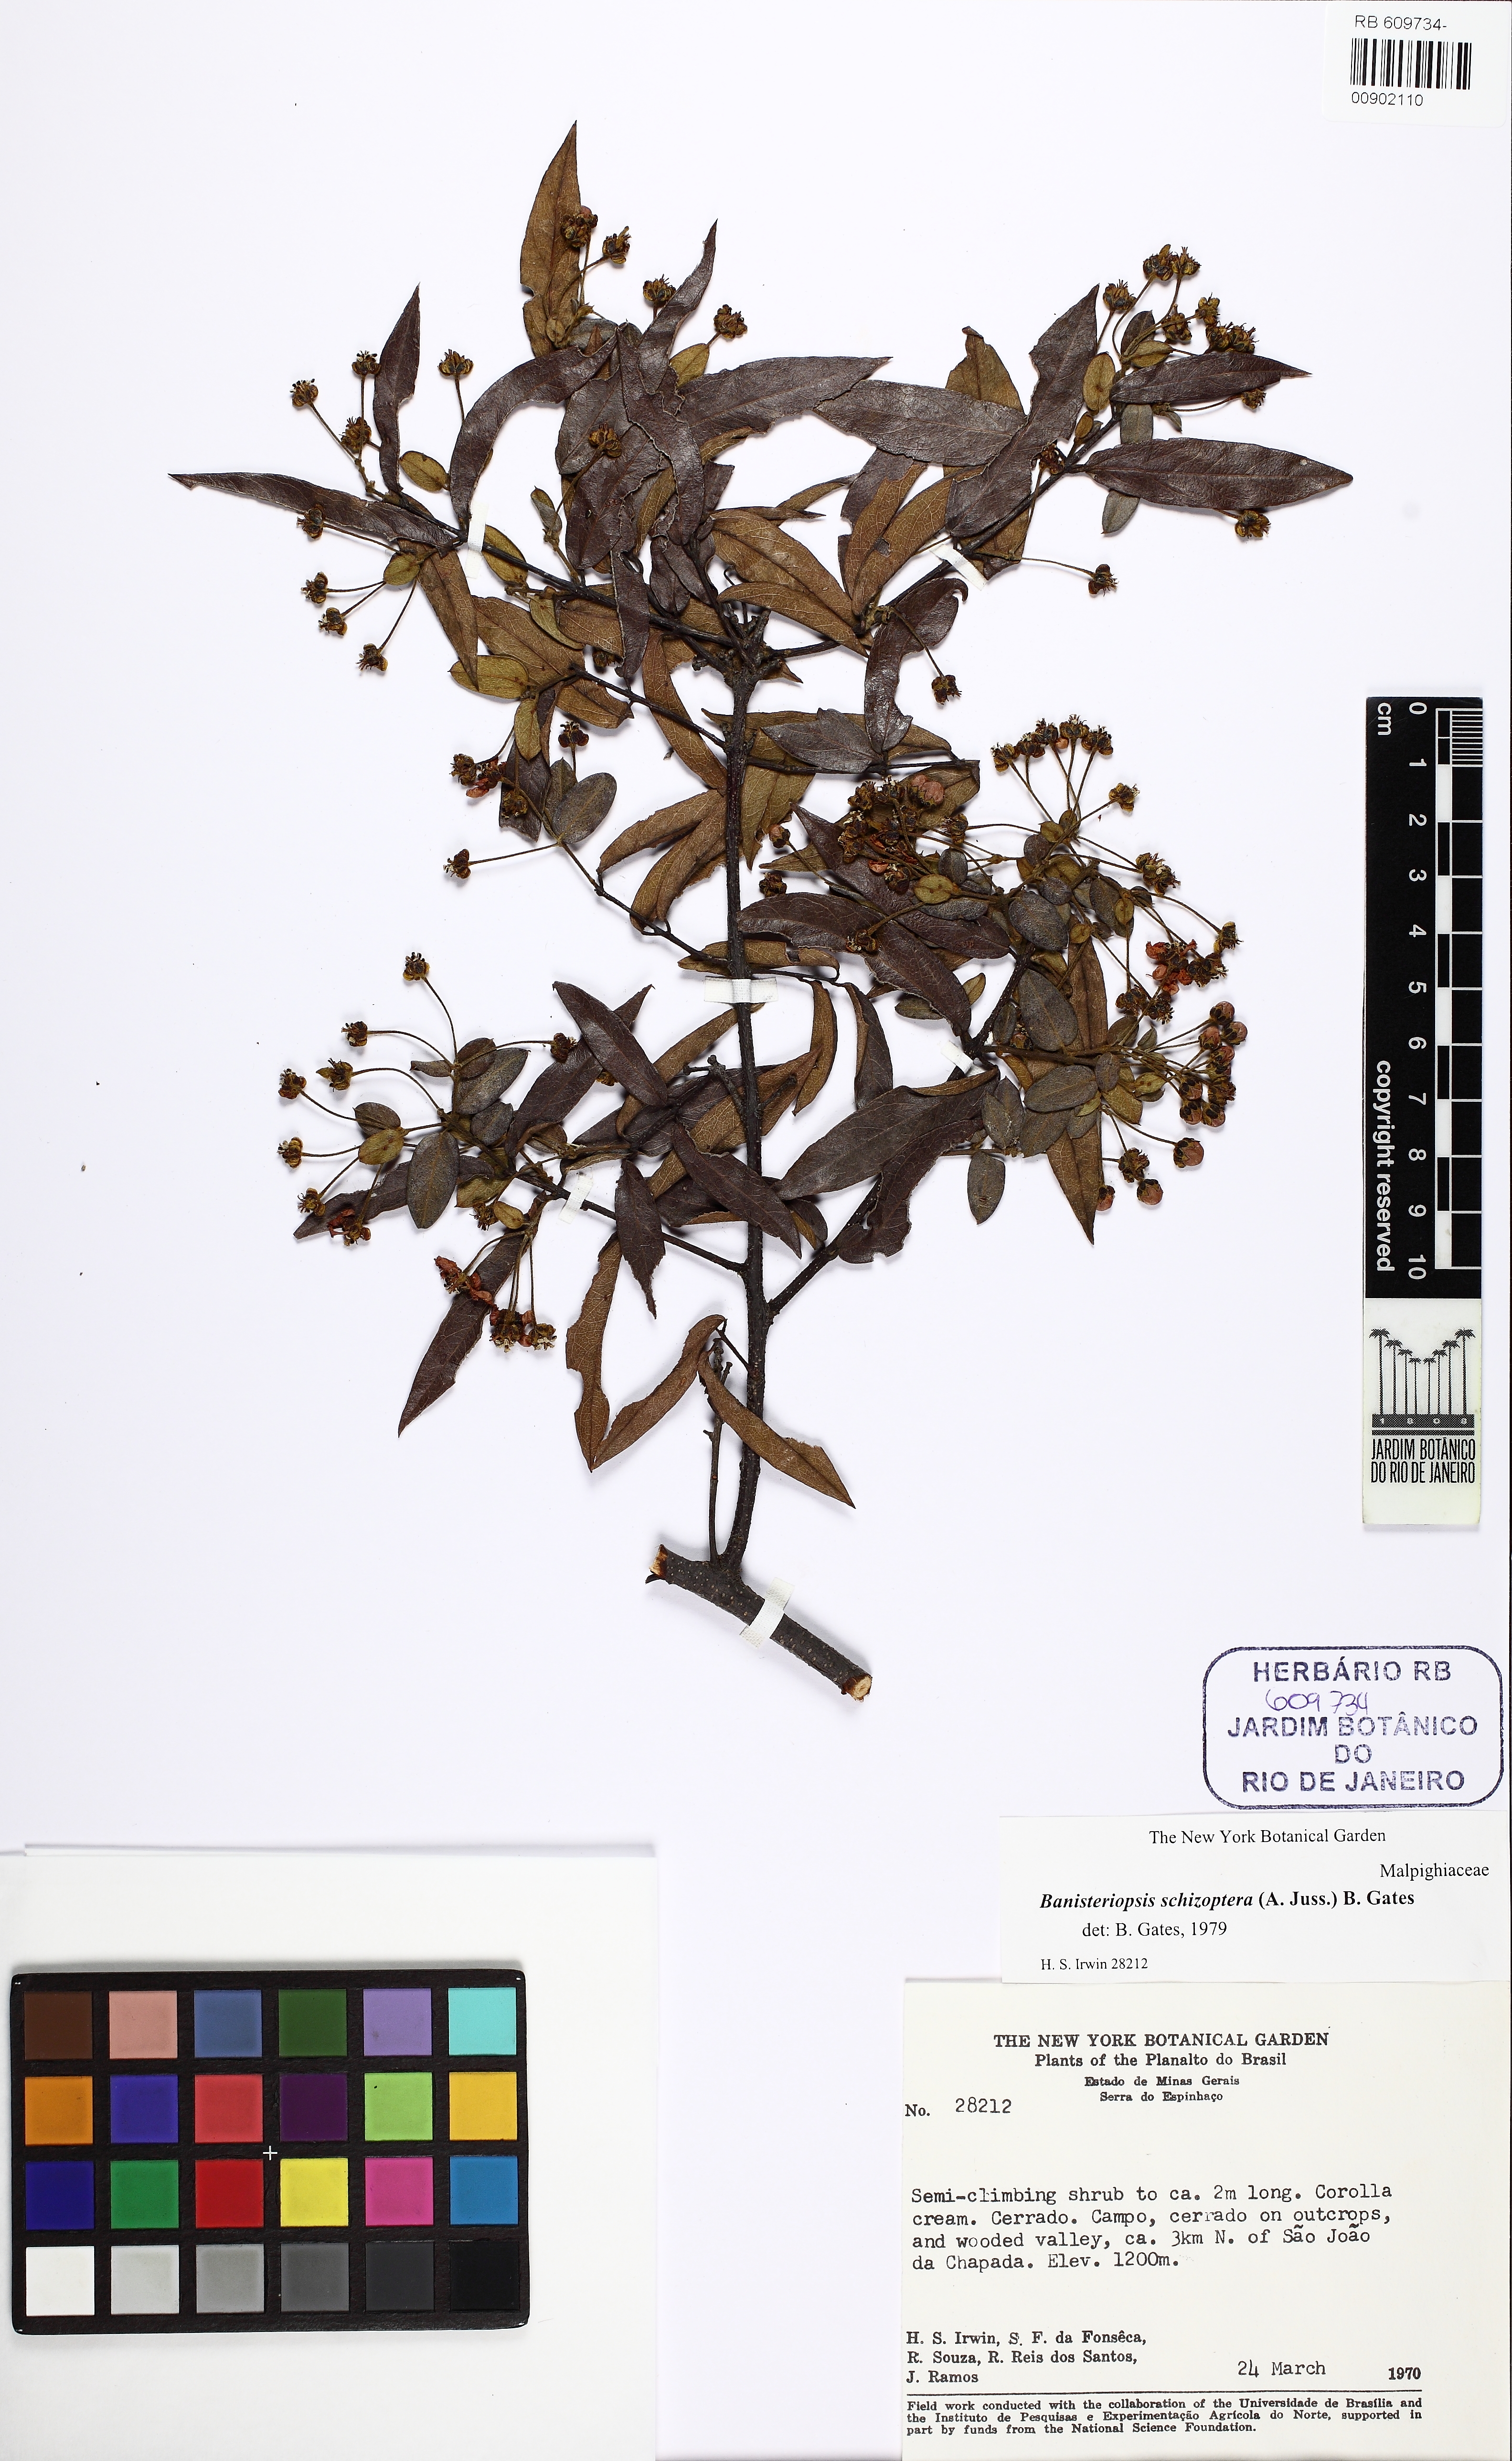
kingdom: Plantae
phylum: Tracheophyta
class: Magnoliopsida
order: Malpighiales
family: Malpighiaceae
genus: Banisteriopsis
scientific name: Banisteriopsis schizoptera
